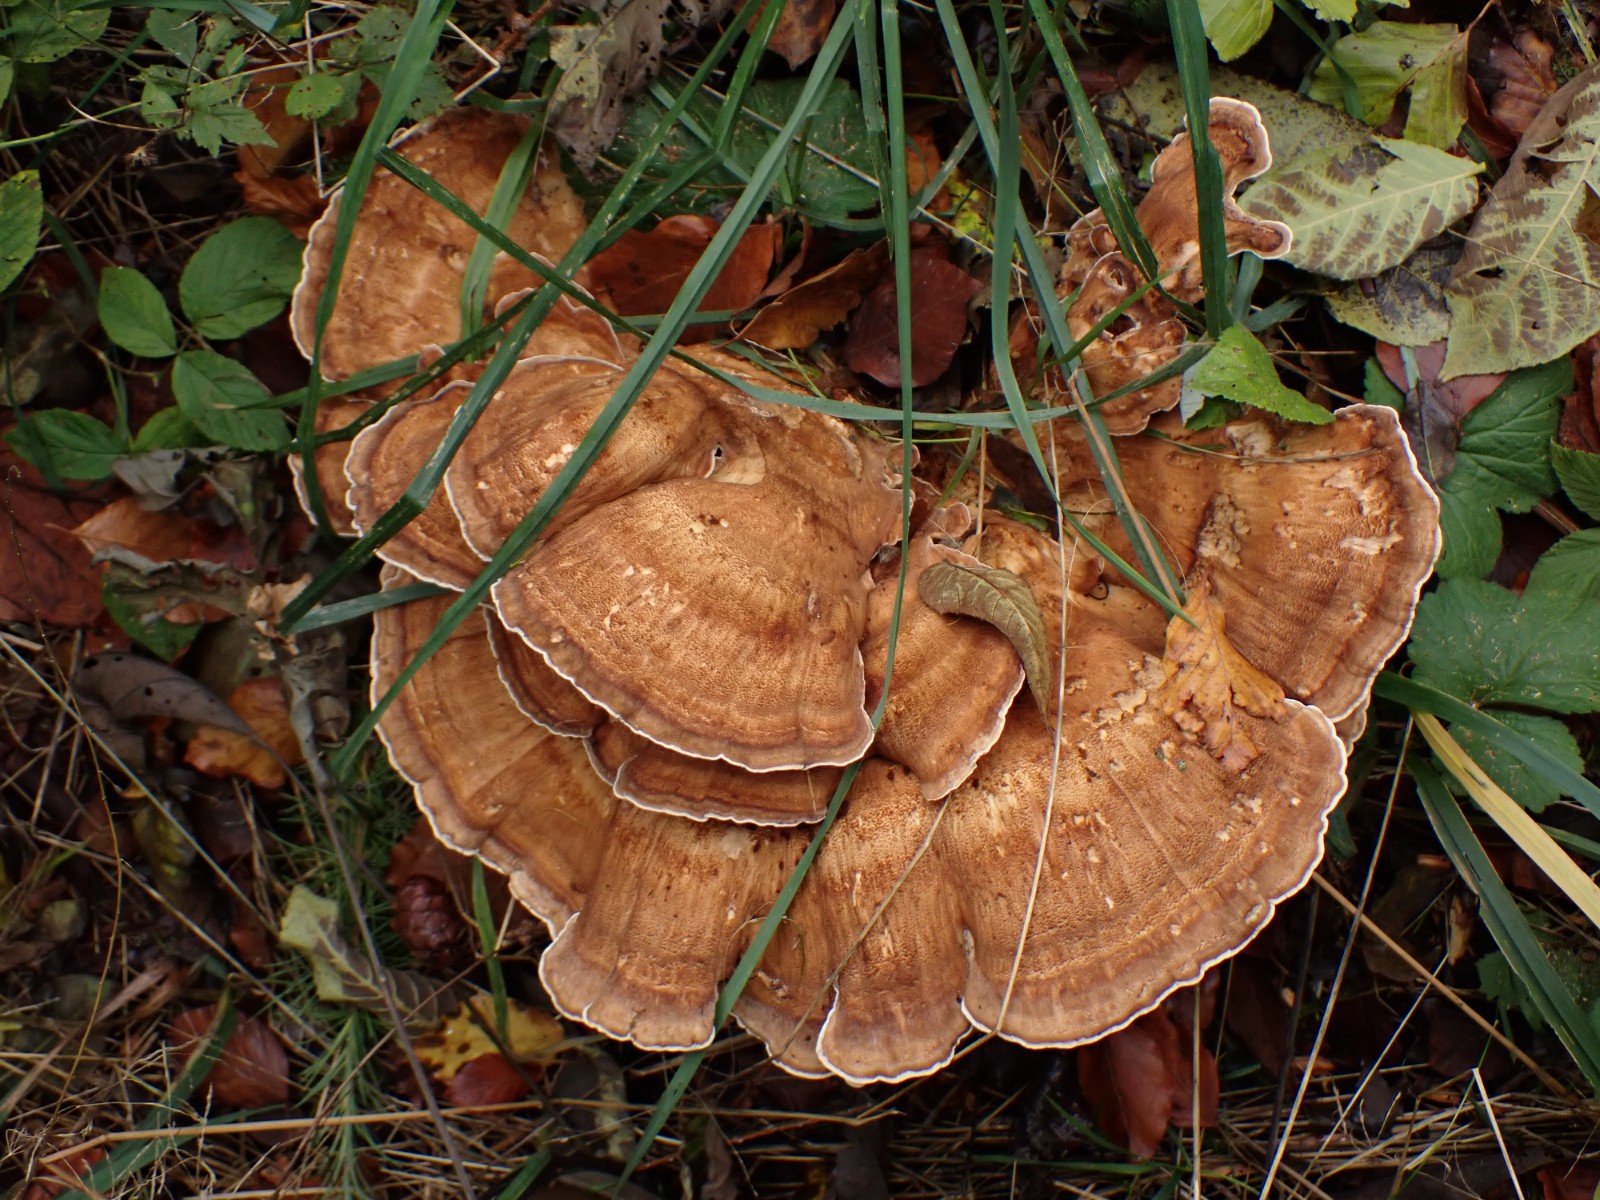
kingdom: Fungi
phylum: Basidiomycota
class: Agaricomycetes
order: Polyporales
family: Meripilaceae
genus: Meripilus
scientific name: Meripilus giganteus
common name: kæmpeporesvamp
